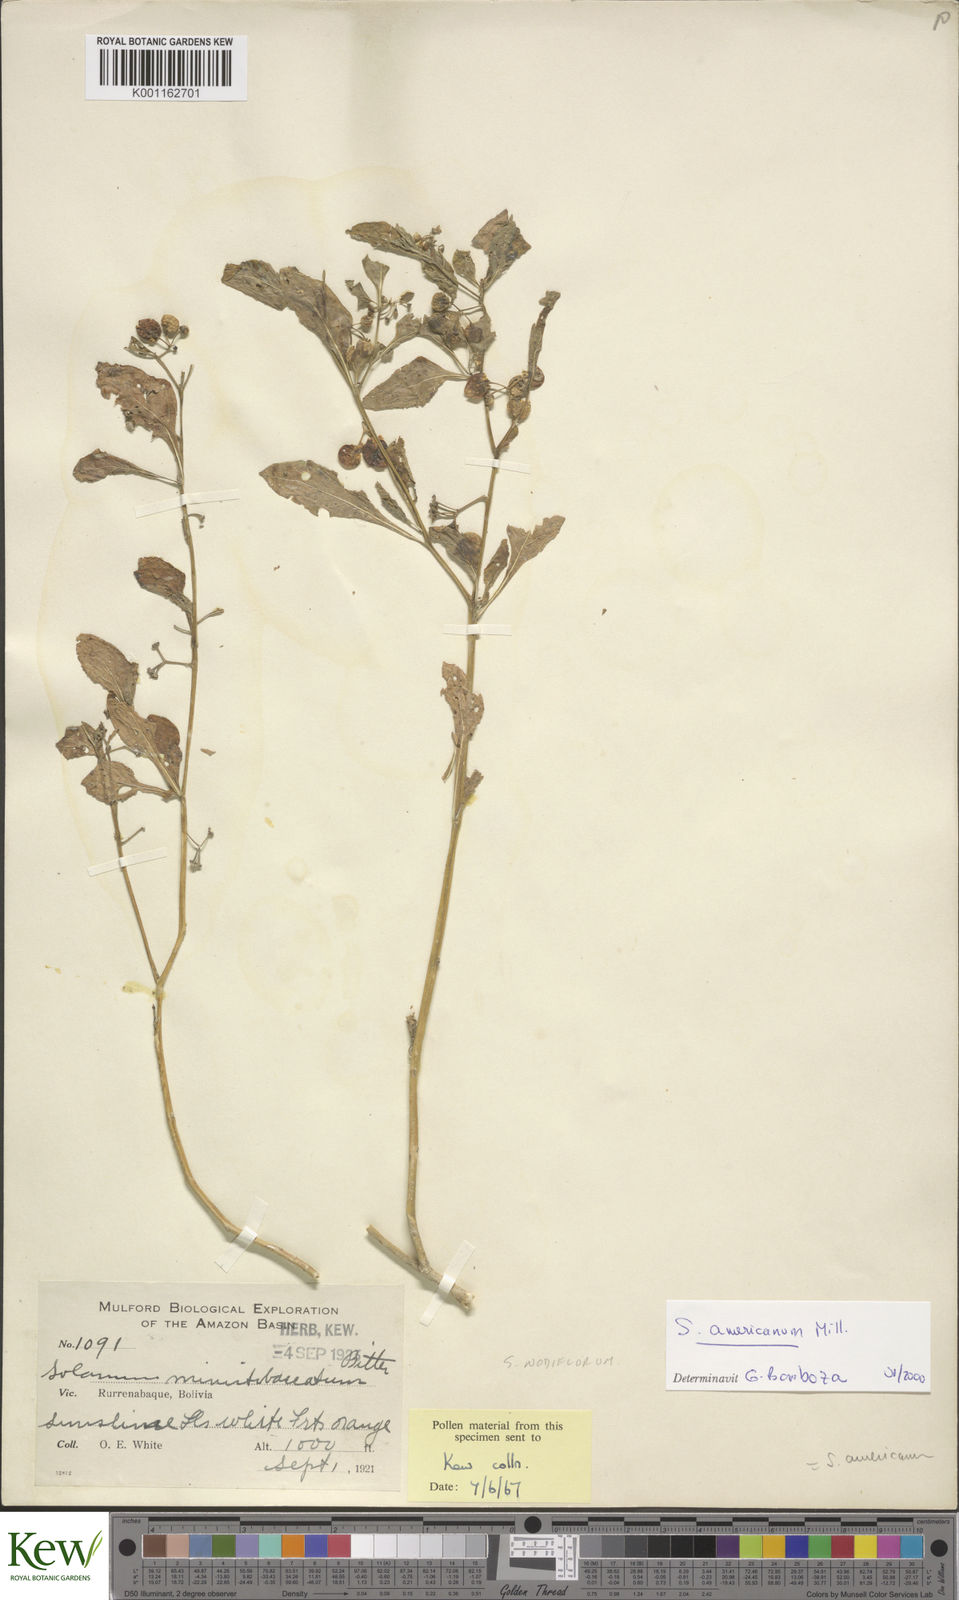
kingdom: Plantae
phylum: Tracheophyta
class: Magnoliopsida
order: Solanales
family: Solanaceae
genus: Solanum
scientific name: Solanum americanum
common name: American black nightshade
